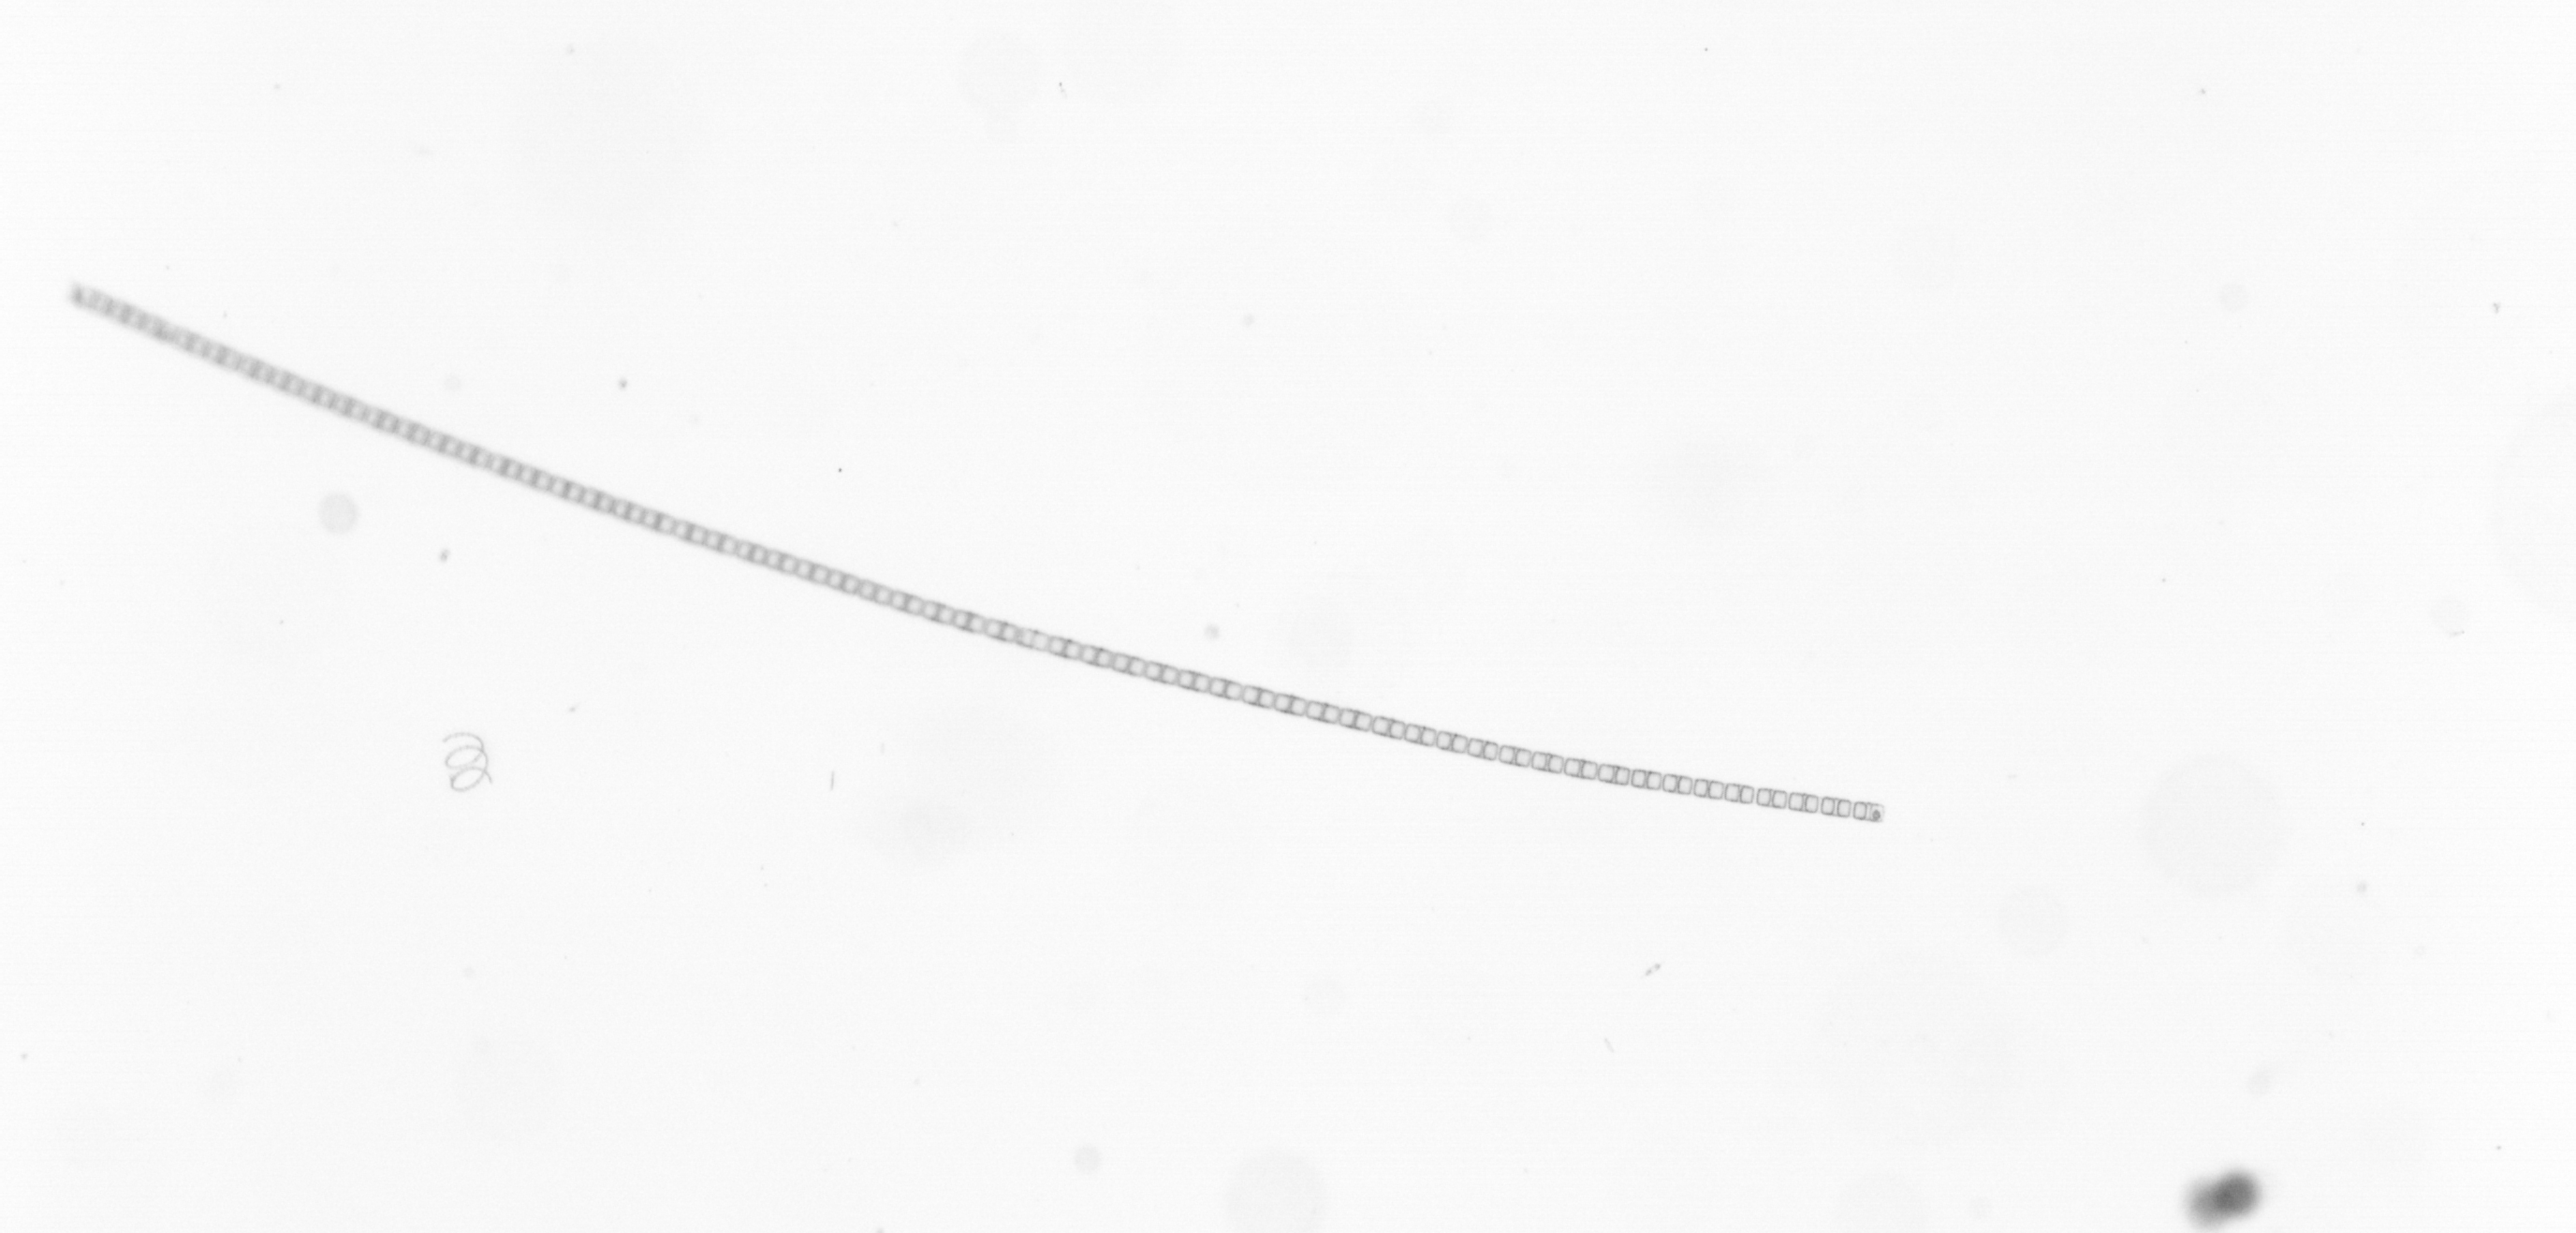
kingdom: Chromista
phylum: Ochrophyta
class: Bacillariophyceae
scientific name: Bacillariophyceae
